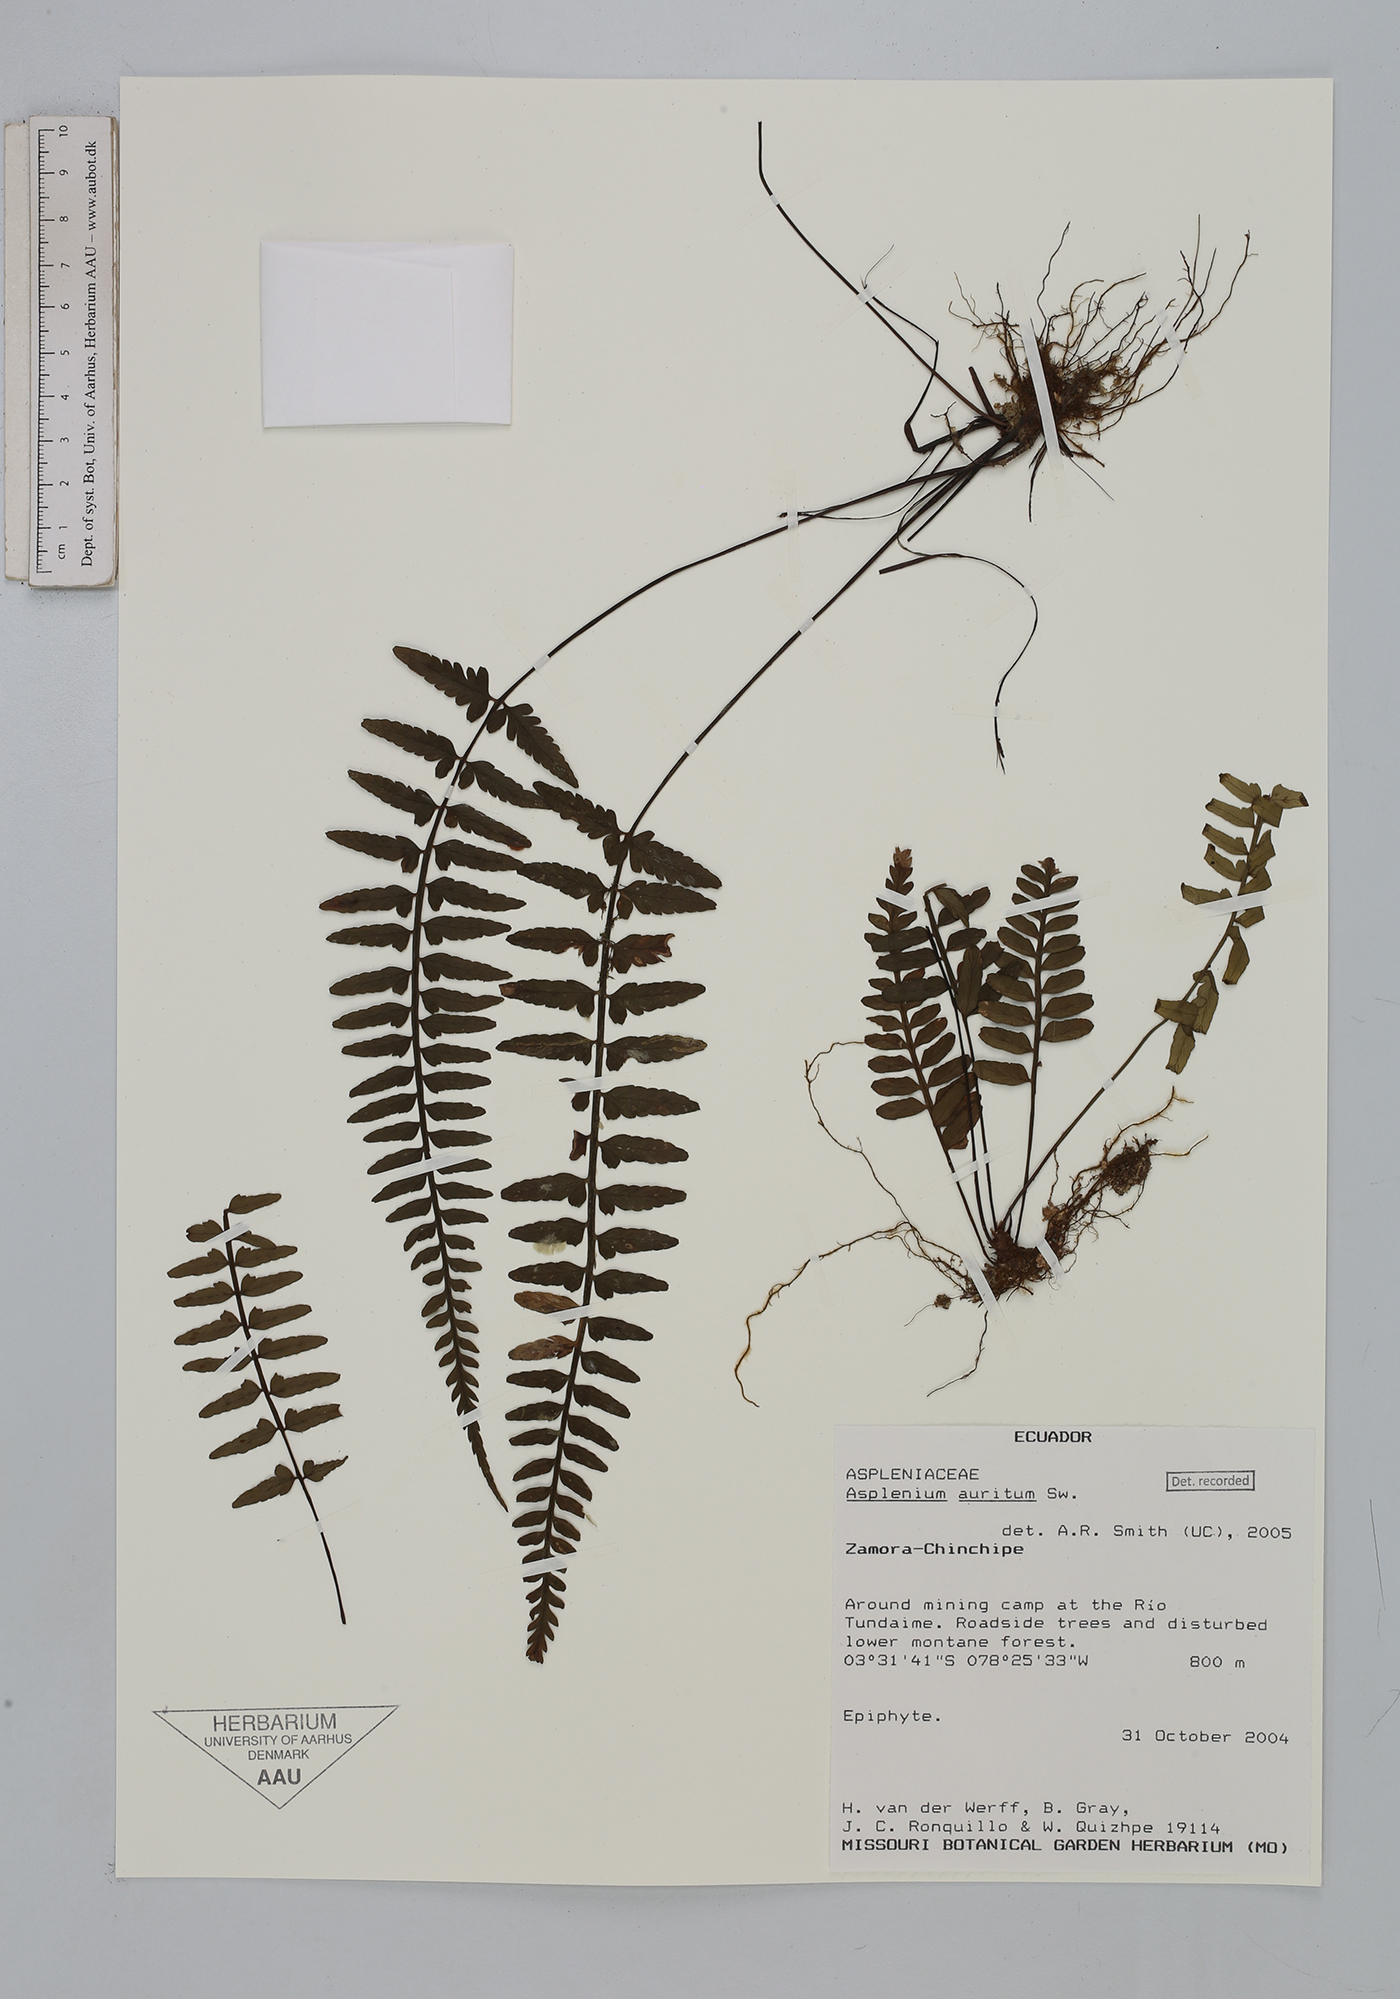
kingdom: Plantae
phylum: Tracheophyta
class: Polypodiopsida
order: Polypodiales
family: Aspleniaceae
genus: Asplenium
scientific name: Asplenium auritum
